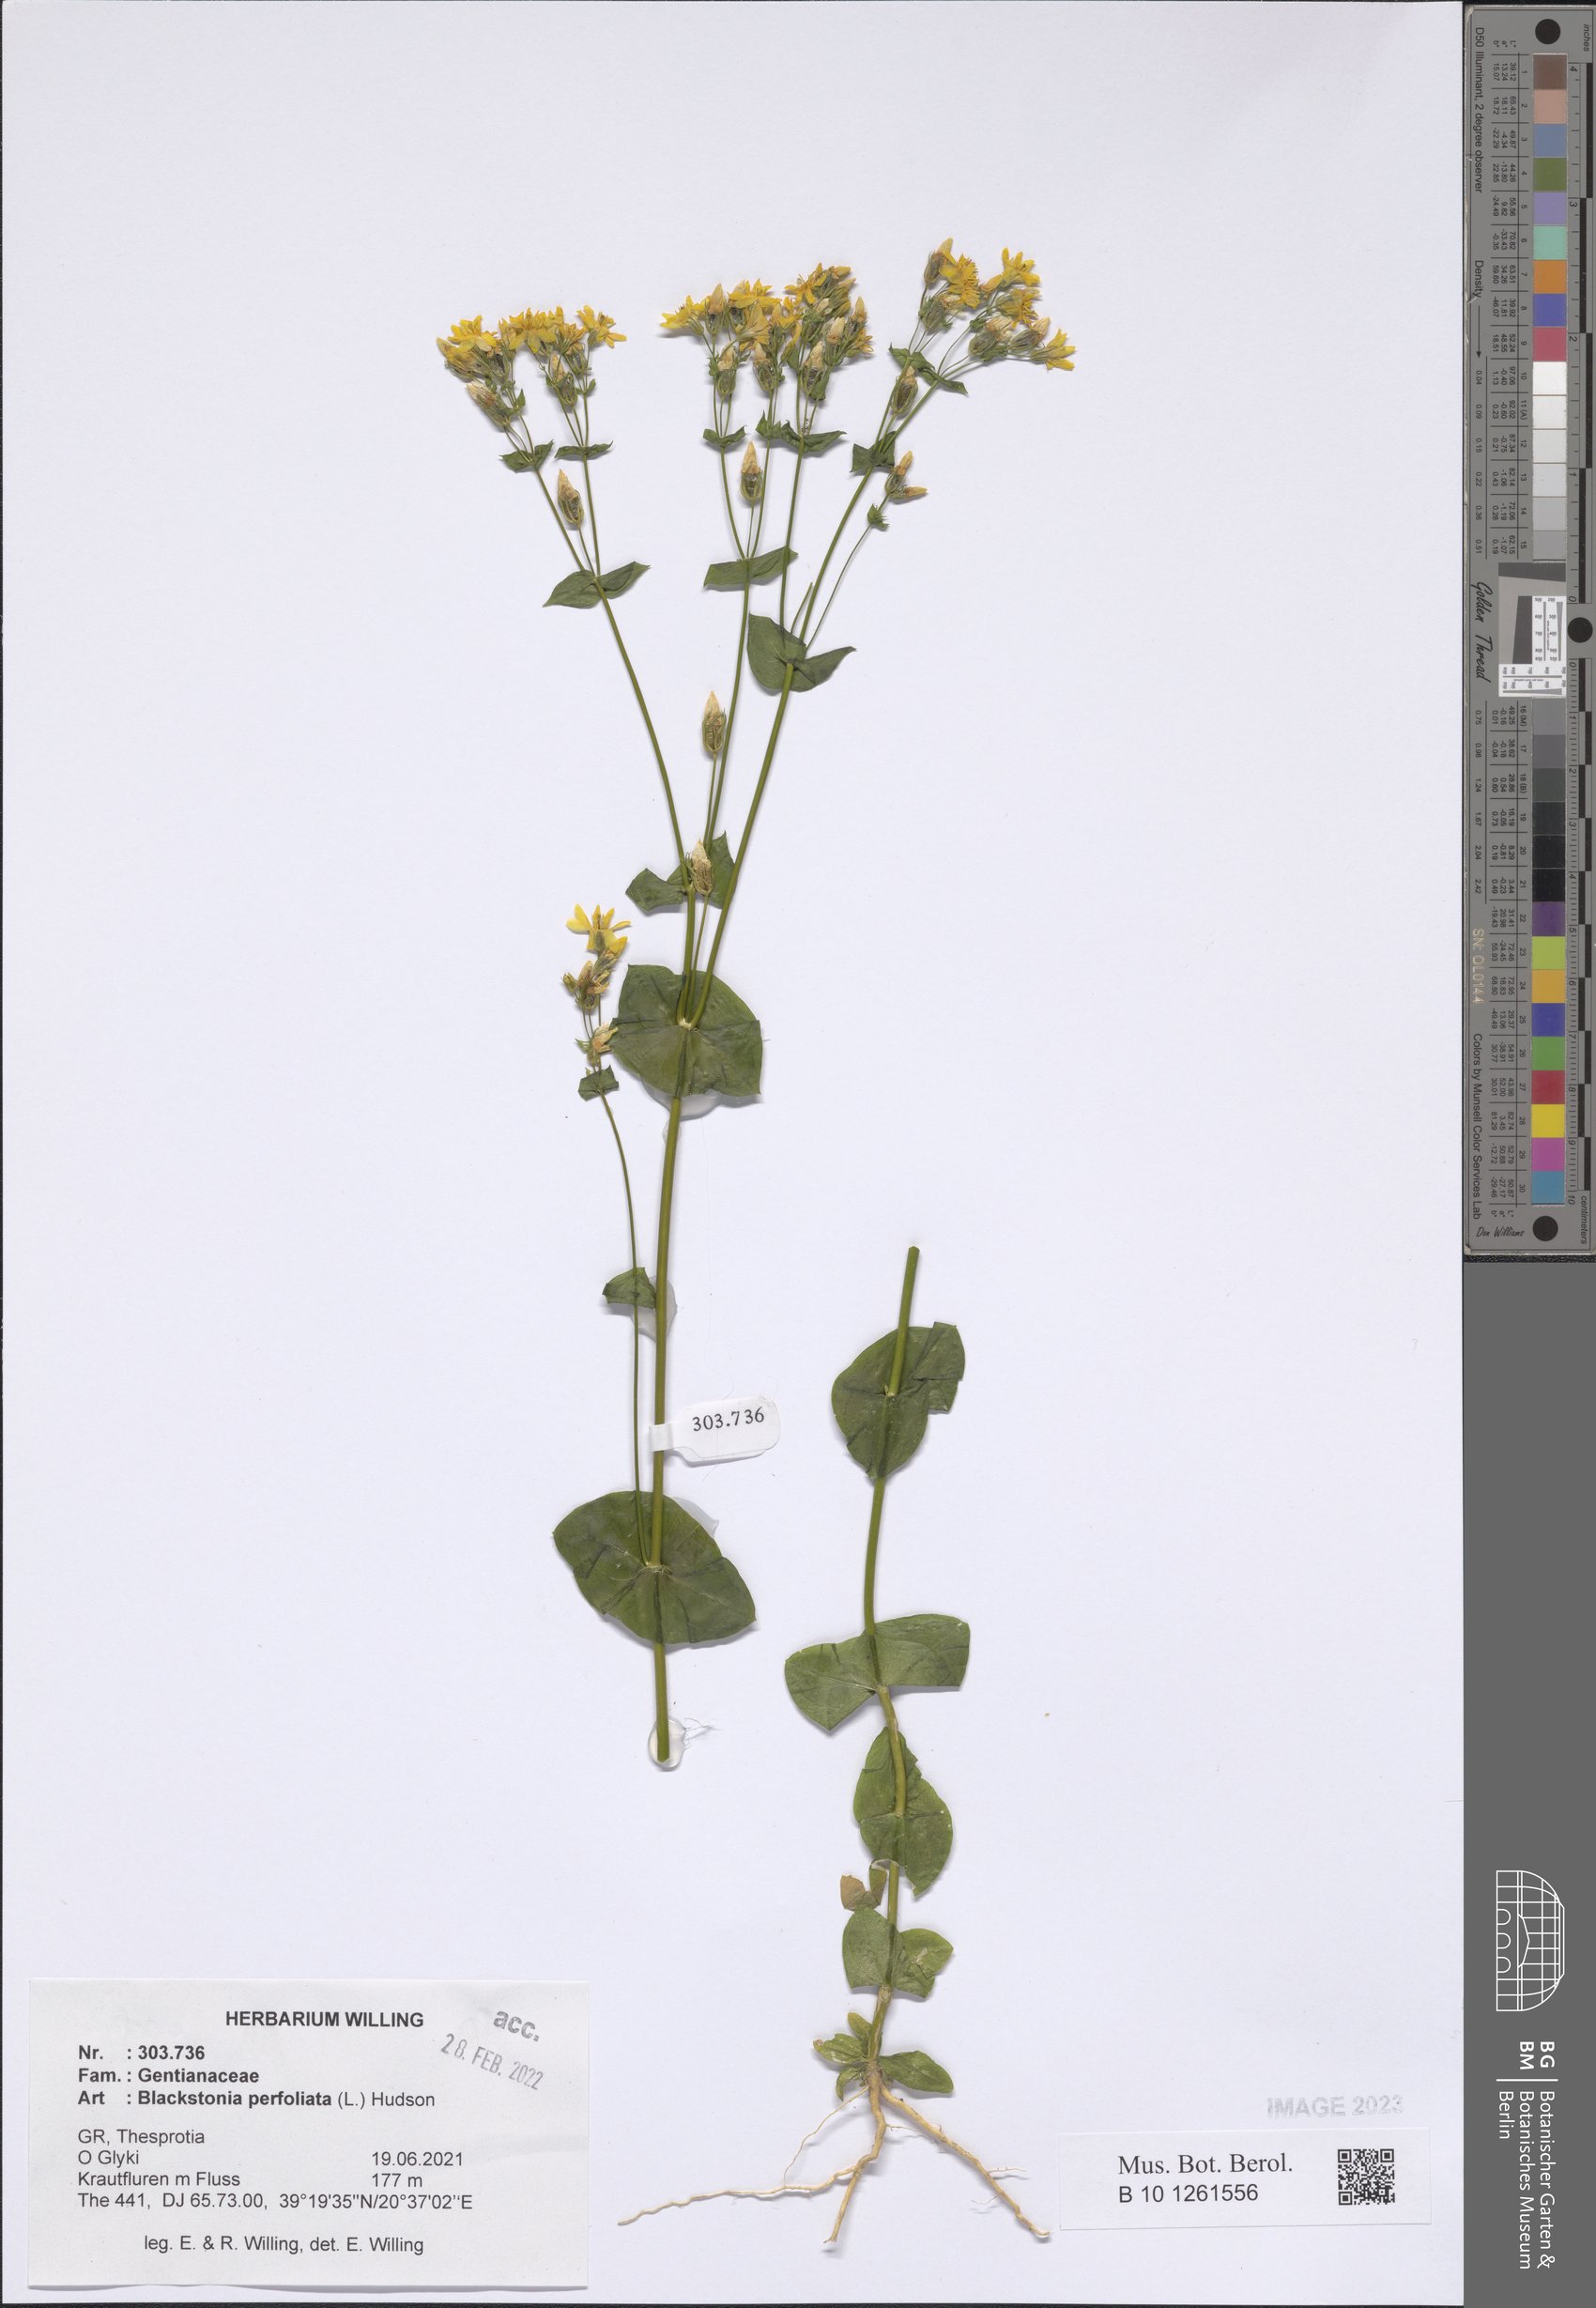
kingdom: Plantae
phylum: Tracheophyta
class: Magnoliopsida
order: Gentianales
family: Gentianaceae
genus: Blackstonia
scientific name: Blackstonia perfoliata
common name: Yellow-wort
